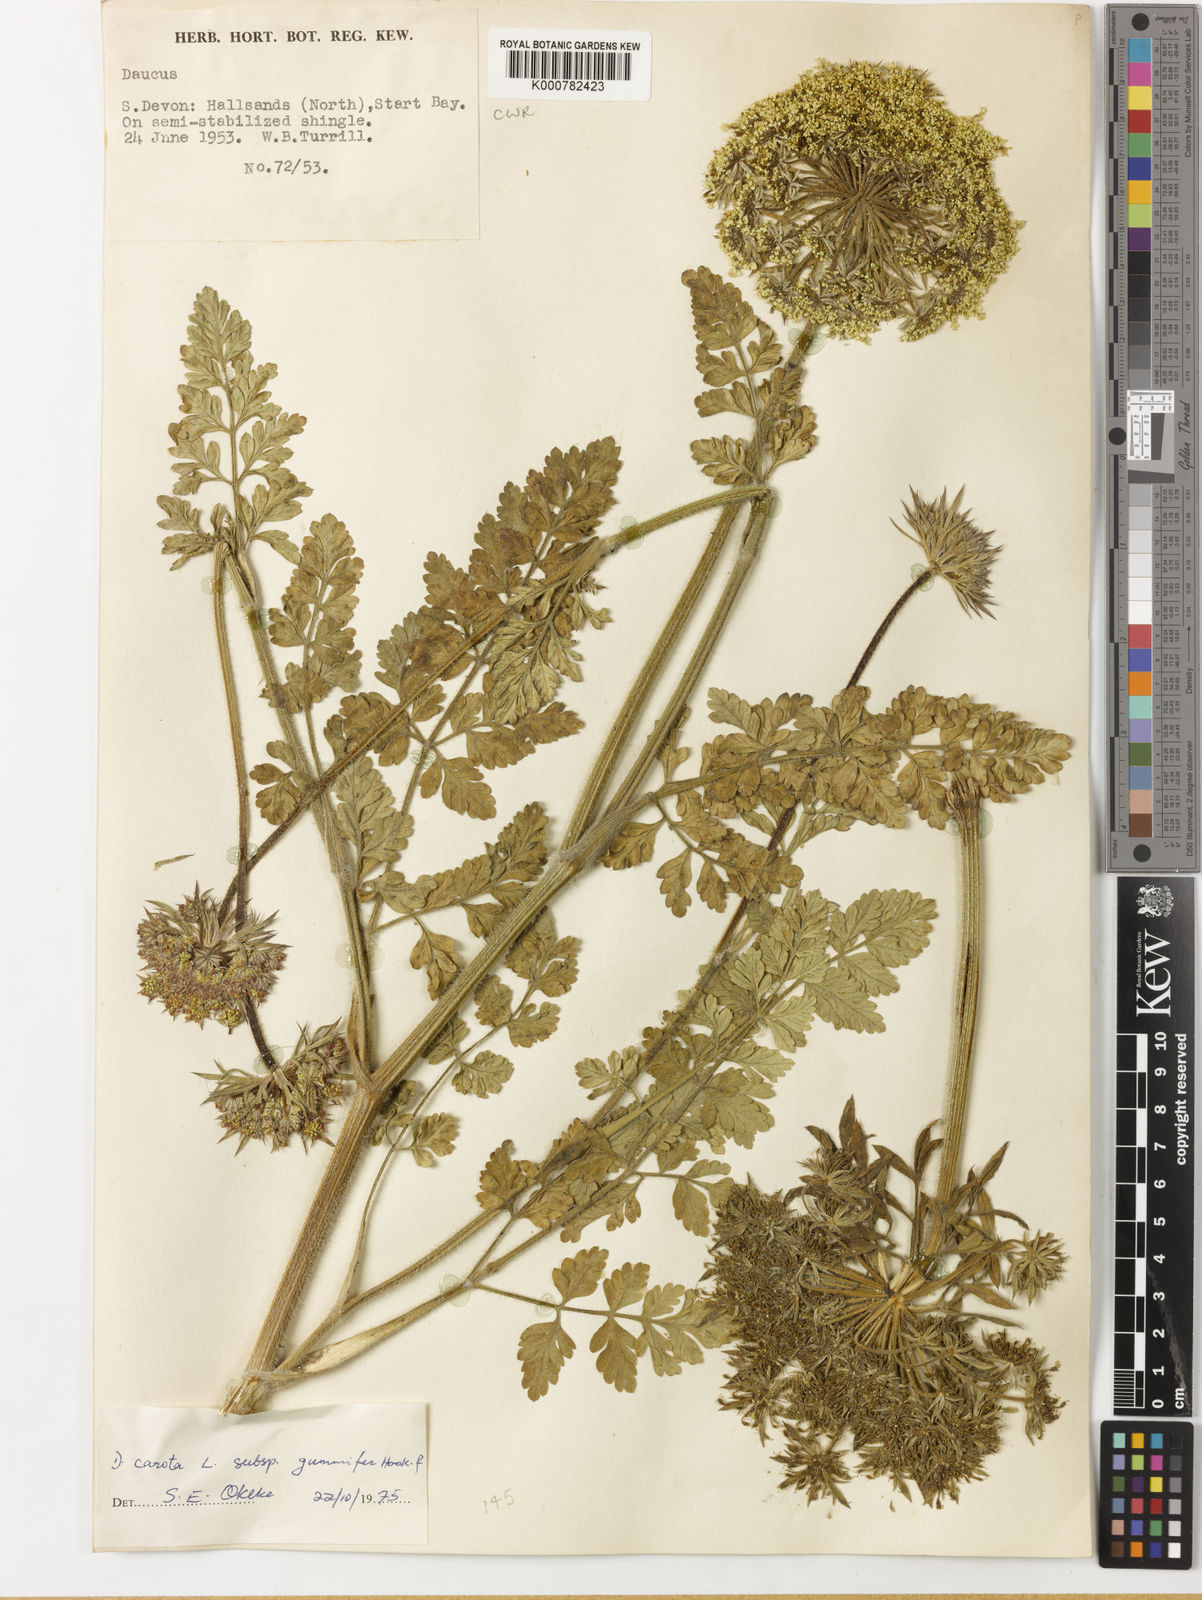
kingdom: Plantae
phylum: Tracheophyta
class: Magnoliopsida
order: Apiales
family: Apiaceae
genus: Daucus
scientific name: Daucus carota
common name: Wild carrot
